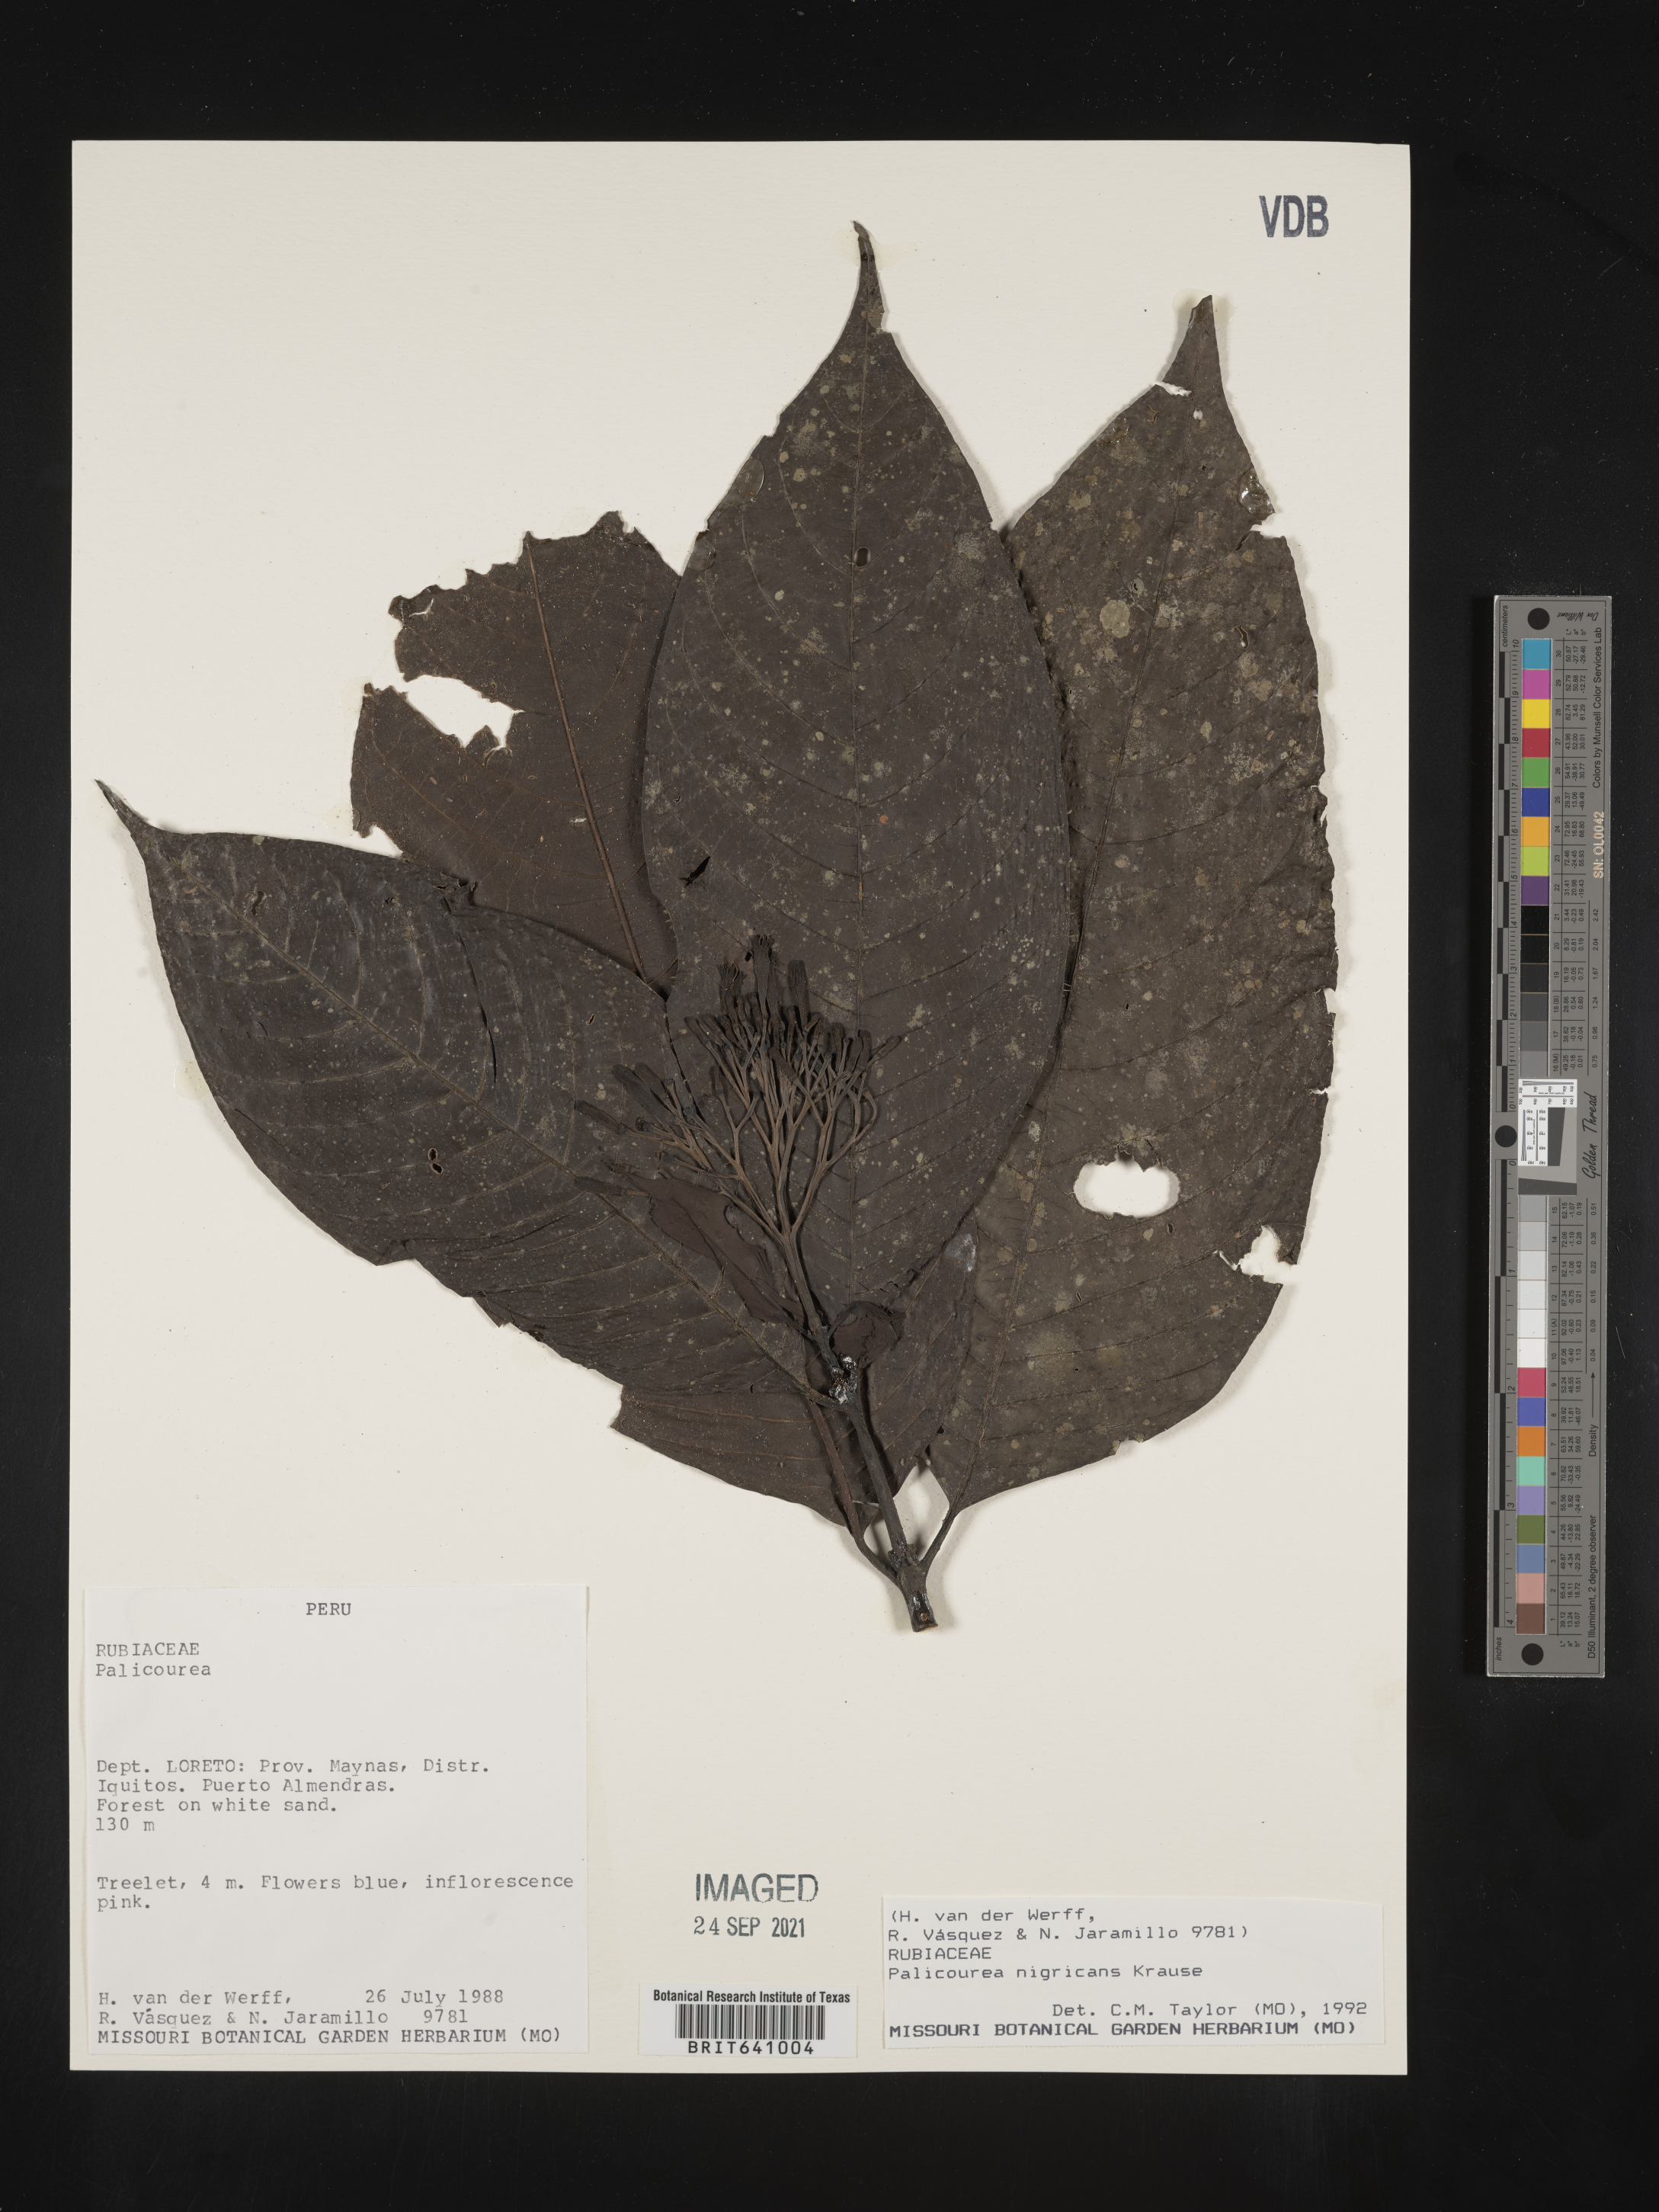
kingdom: Plantae
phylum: Tracheophyta
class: Magnoliopsida
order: Gentianales
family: Rubiaceae
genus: Palicourea
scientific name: Palicourea
